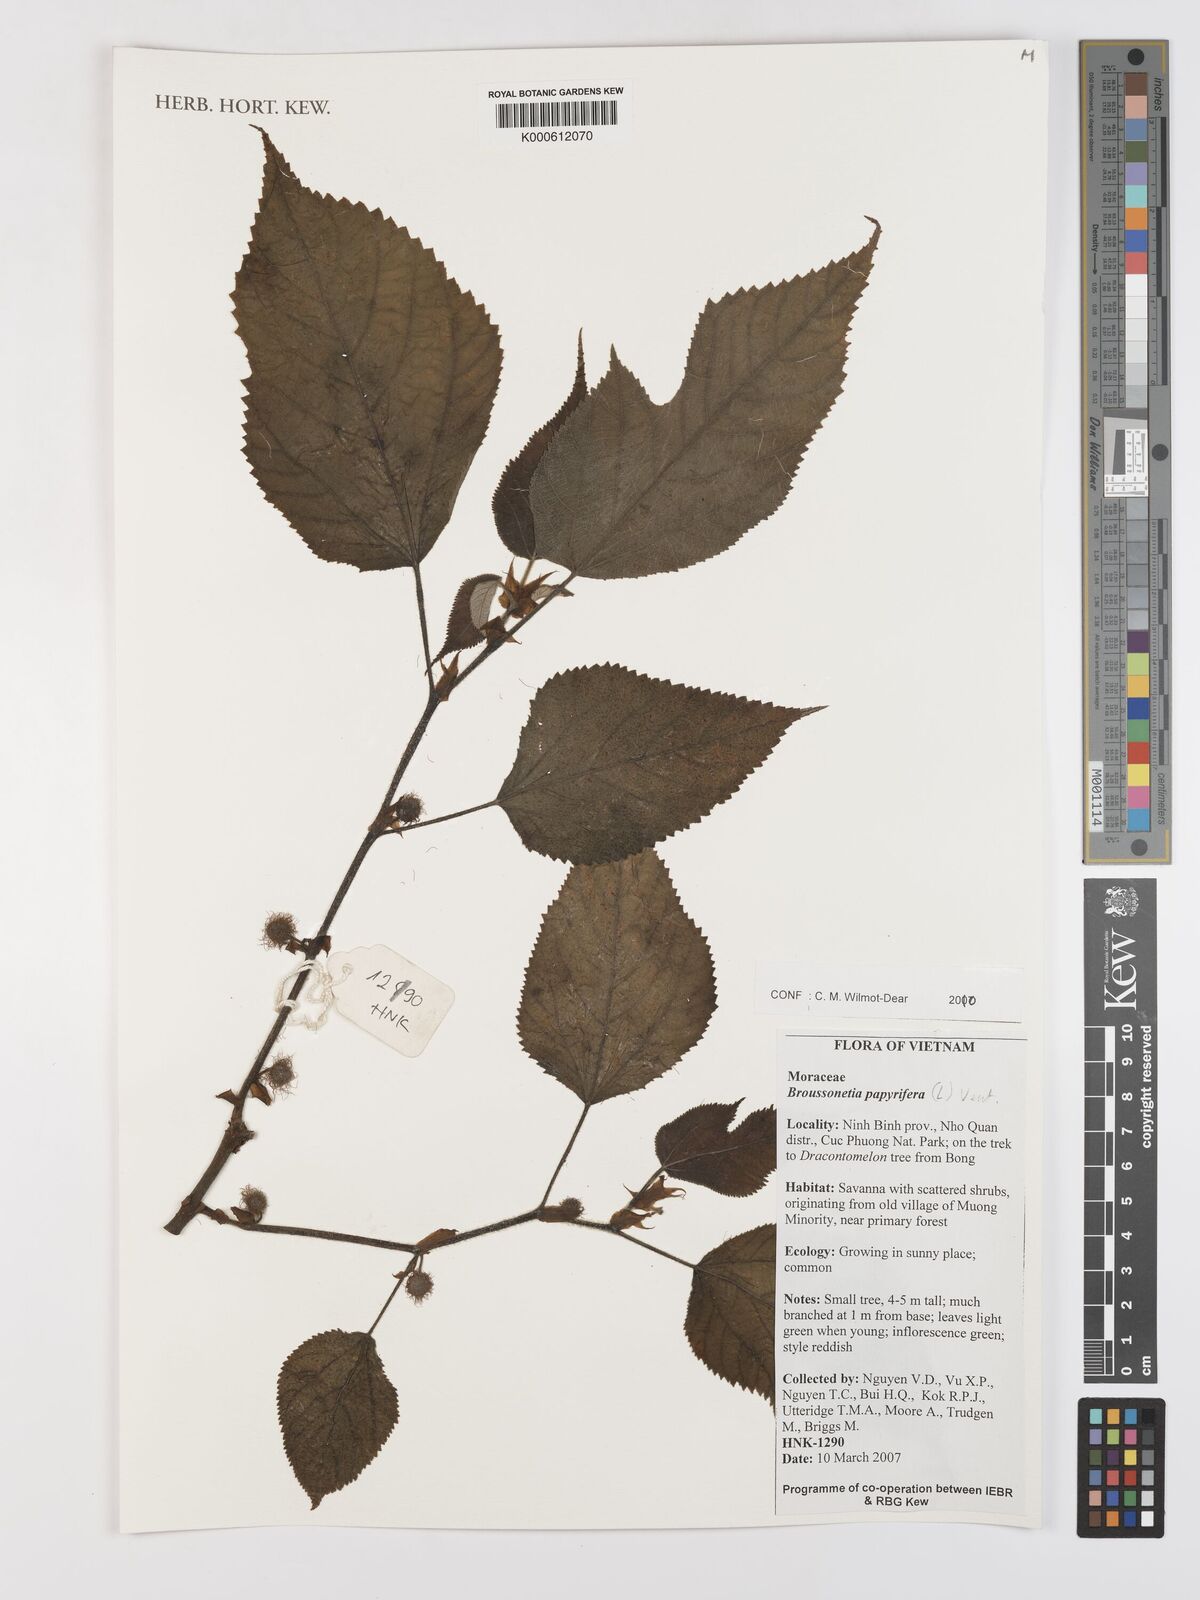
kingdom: Plantae
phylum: Tracheophyta
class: Magnoliopsida
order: Rosales
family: Moraceae
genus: Broussonetia
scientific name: Broussonetia papyrifera
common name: Paper mulberry
